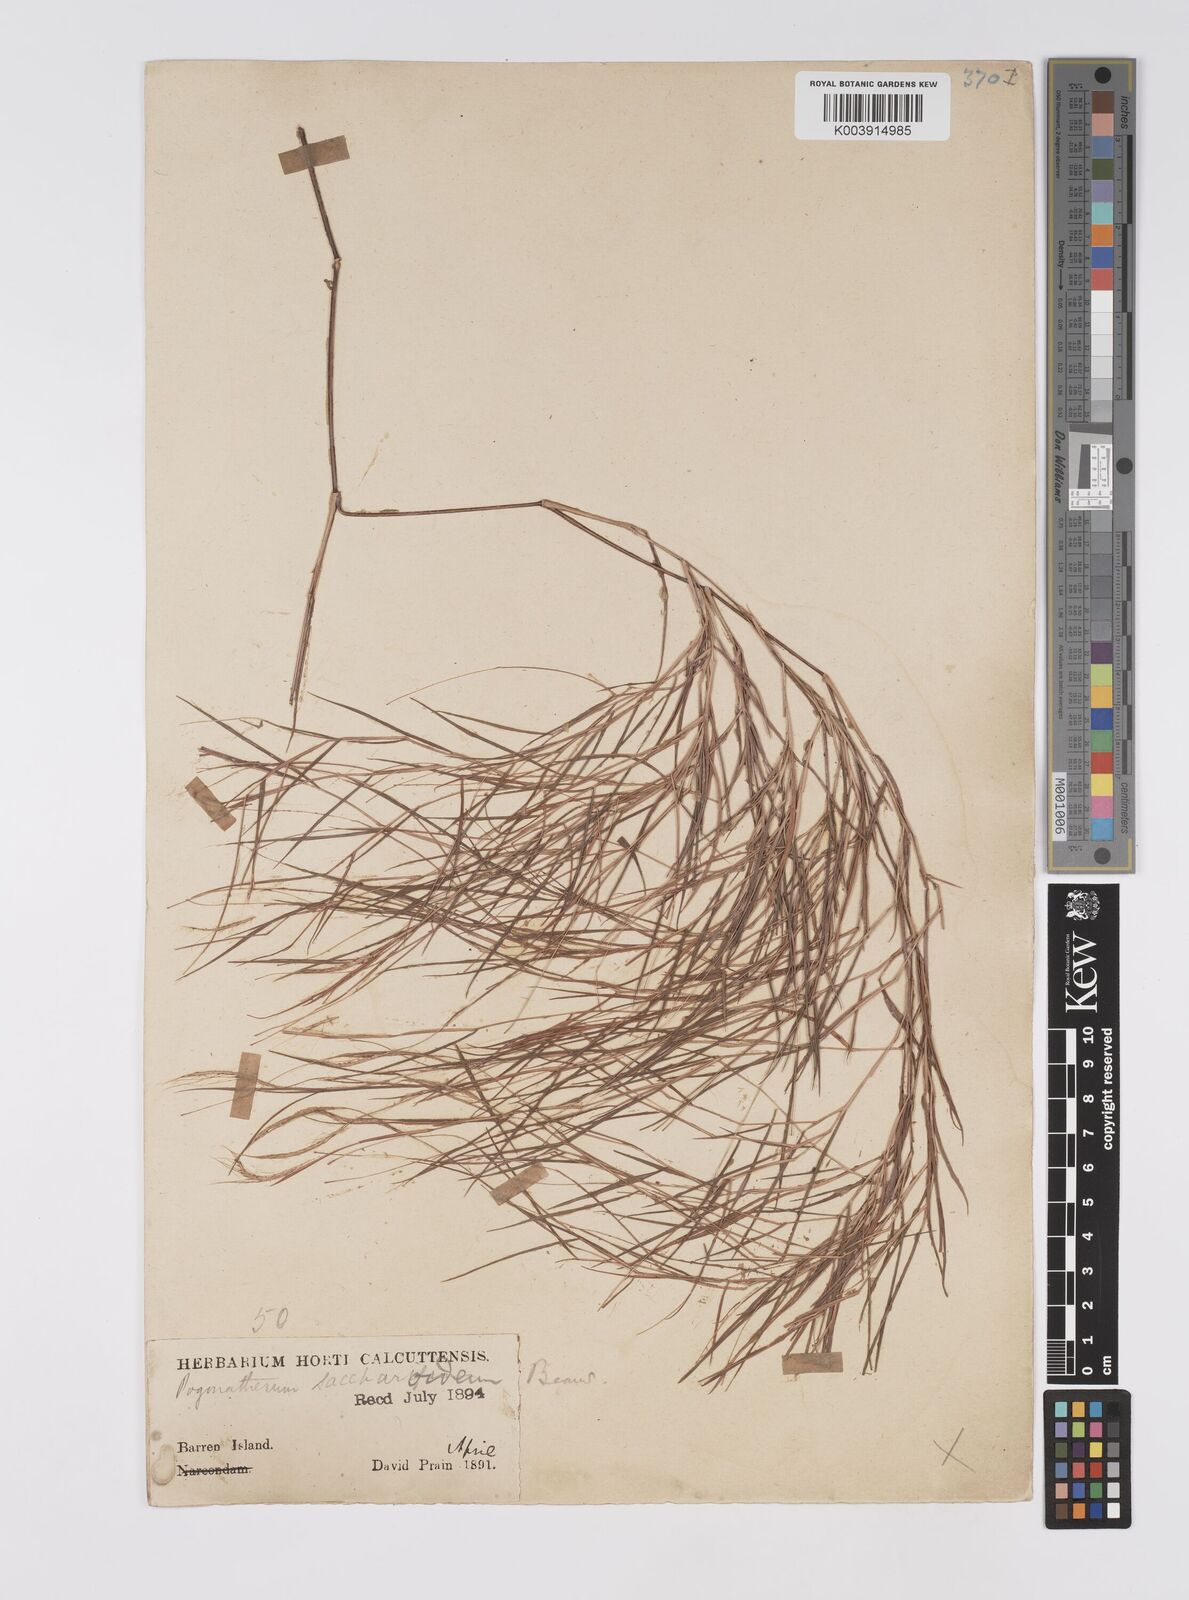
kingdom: Plantae
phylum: Tracheophyta
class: Liliopsida
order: Poales
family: Poaceae
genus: Pogonatherum
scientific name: Pogonatherum paniceum
